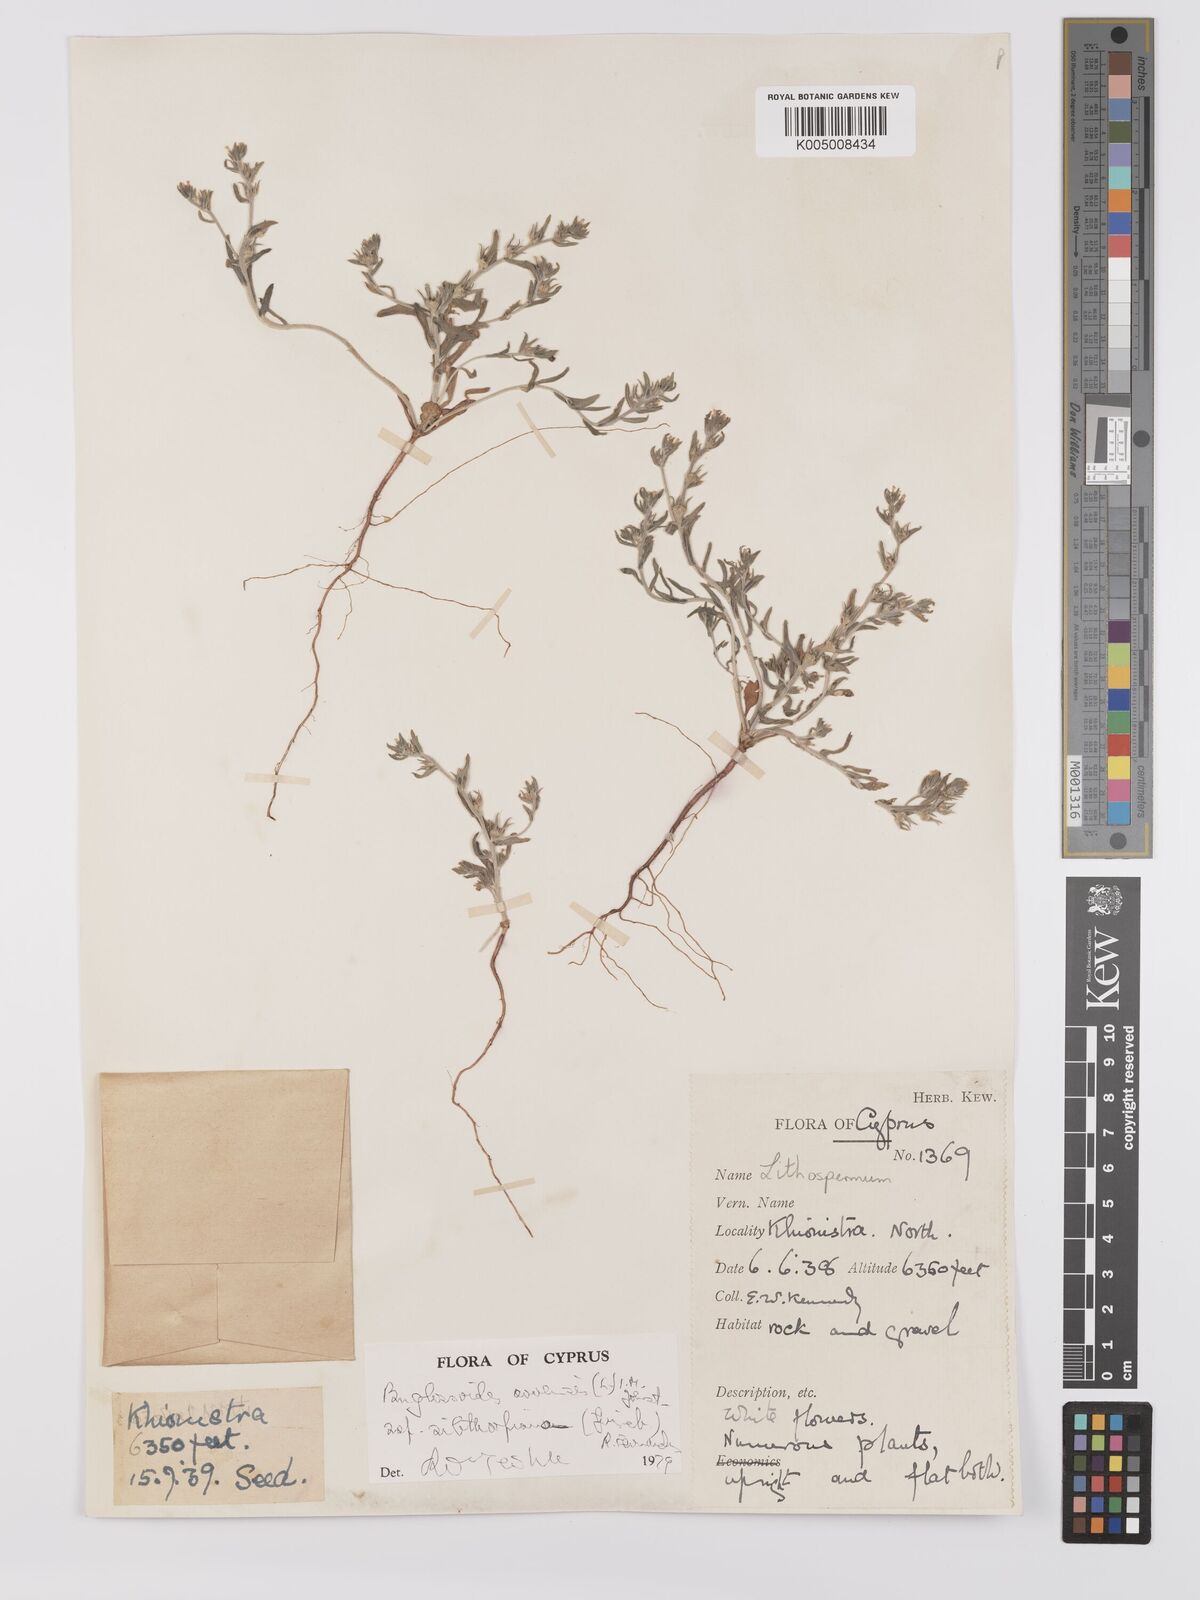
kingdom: Plantae
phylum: Tracheophyta
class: Magnoliopsida
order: Boraginales
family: Boraginaceae
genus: Buglossoides
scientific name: Buglossoides
